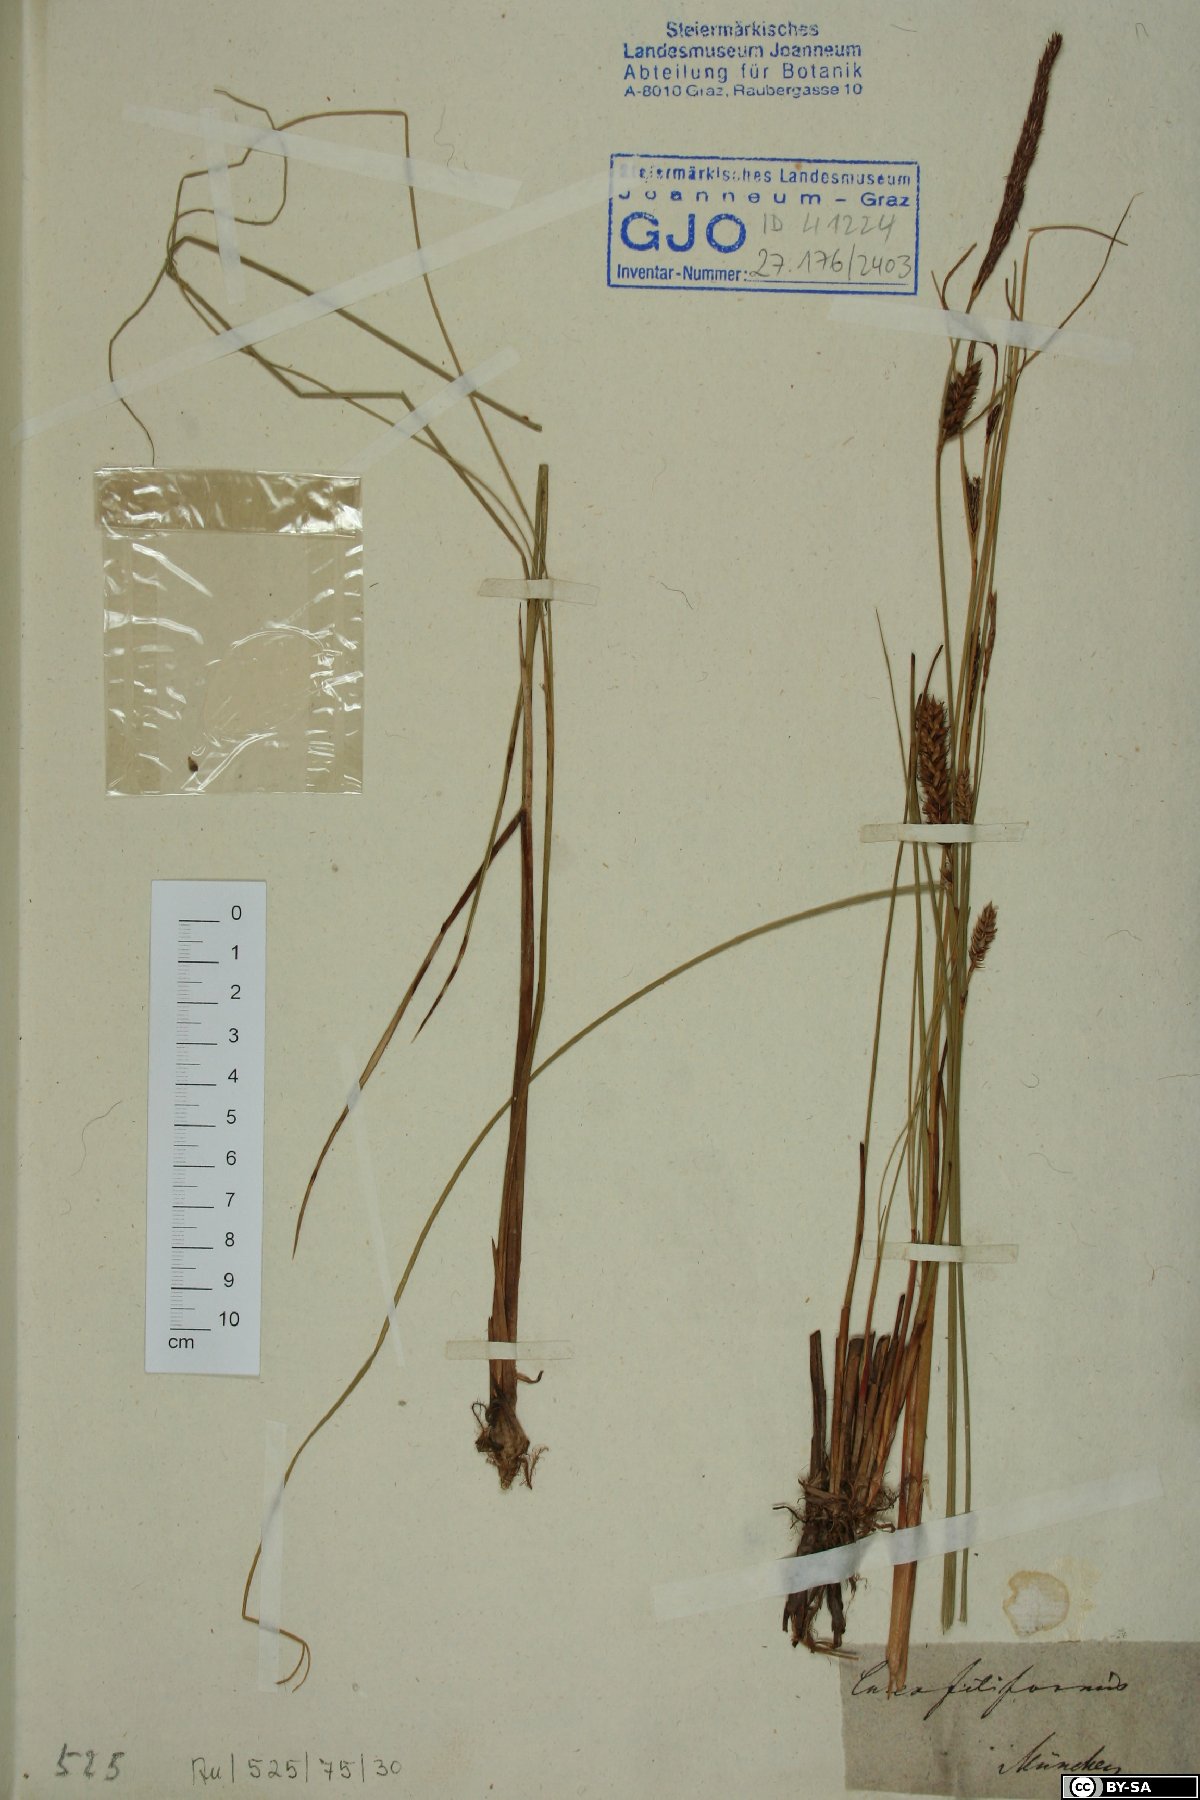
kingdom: Plantae
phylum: Tracheophyta
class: Liliopsida
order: Poales
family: Cyperaceae
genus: Carex
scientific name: Carex montana
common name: Soft-leaved sedge
